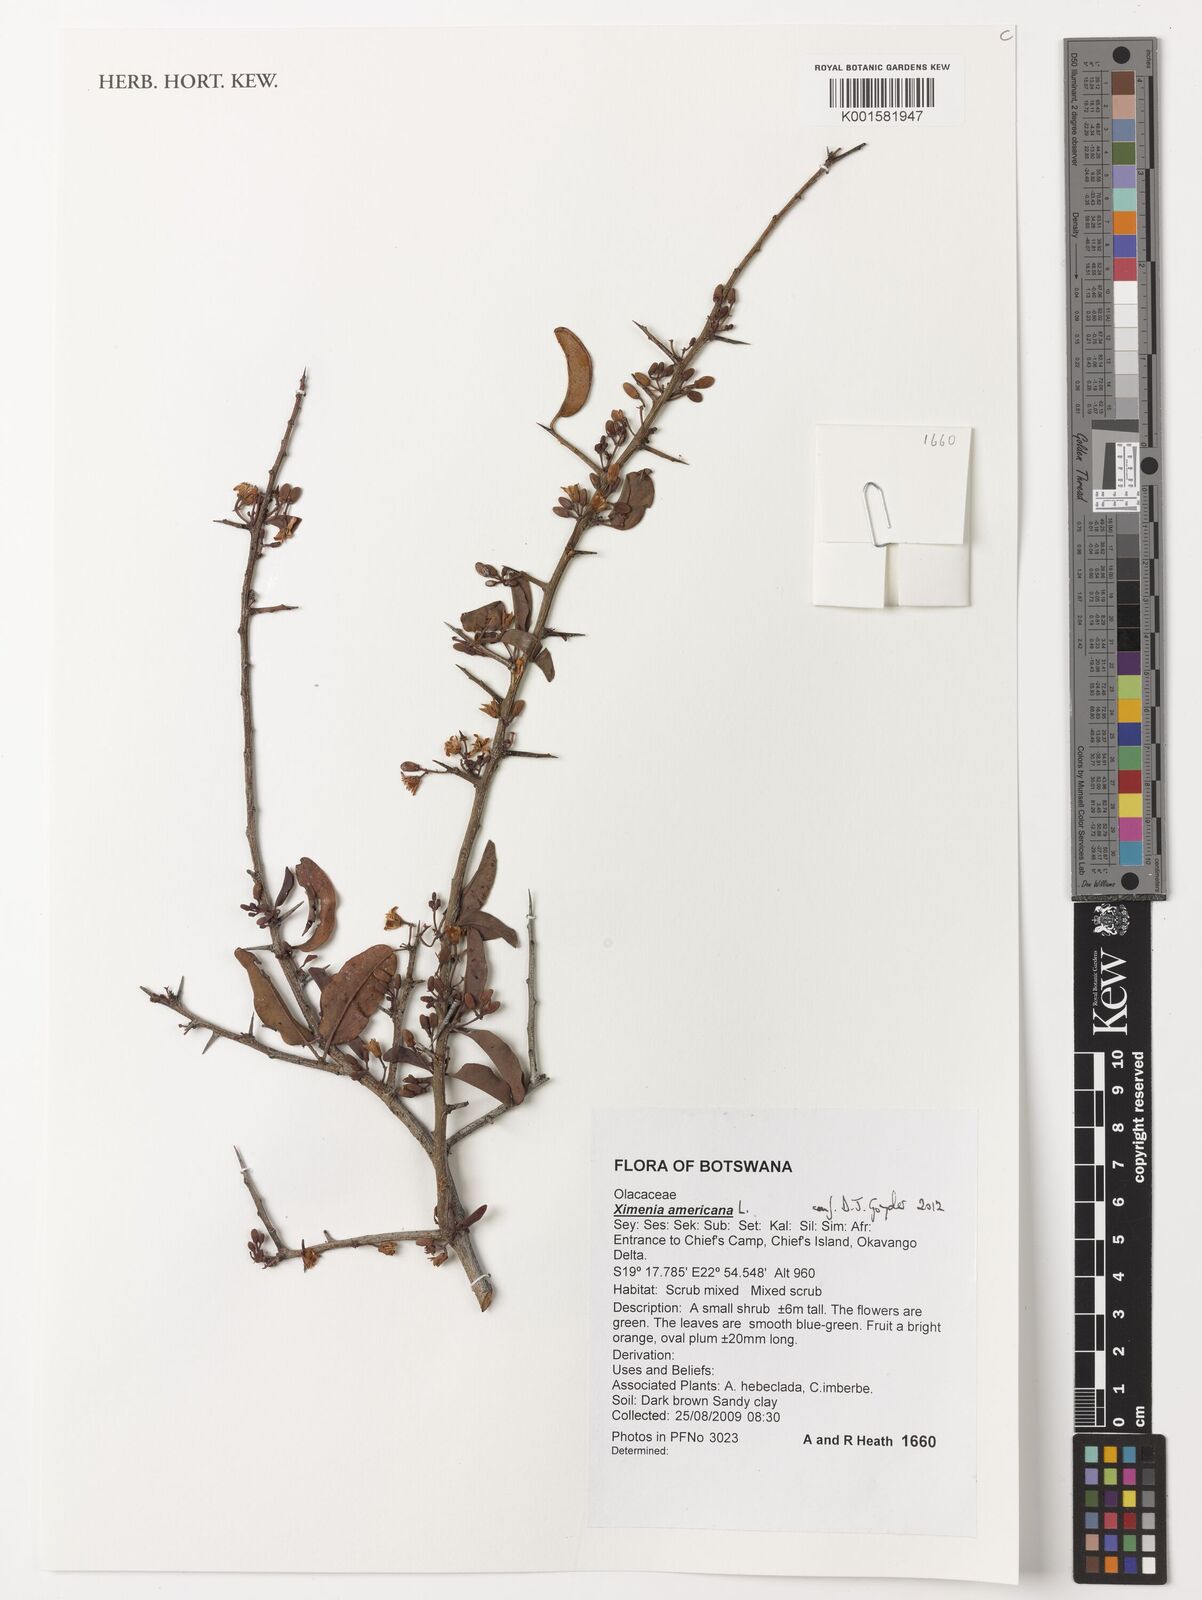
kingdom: Plantae
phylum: Tracheophyta
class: Magnoliopsida
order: Santalales
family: Ximeniaceae
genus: Ximenia
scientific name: Ximenia americana
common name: Tallowwood
